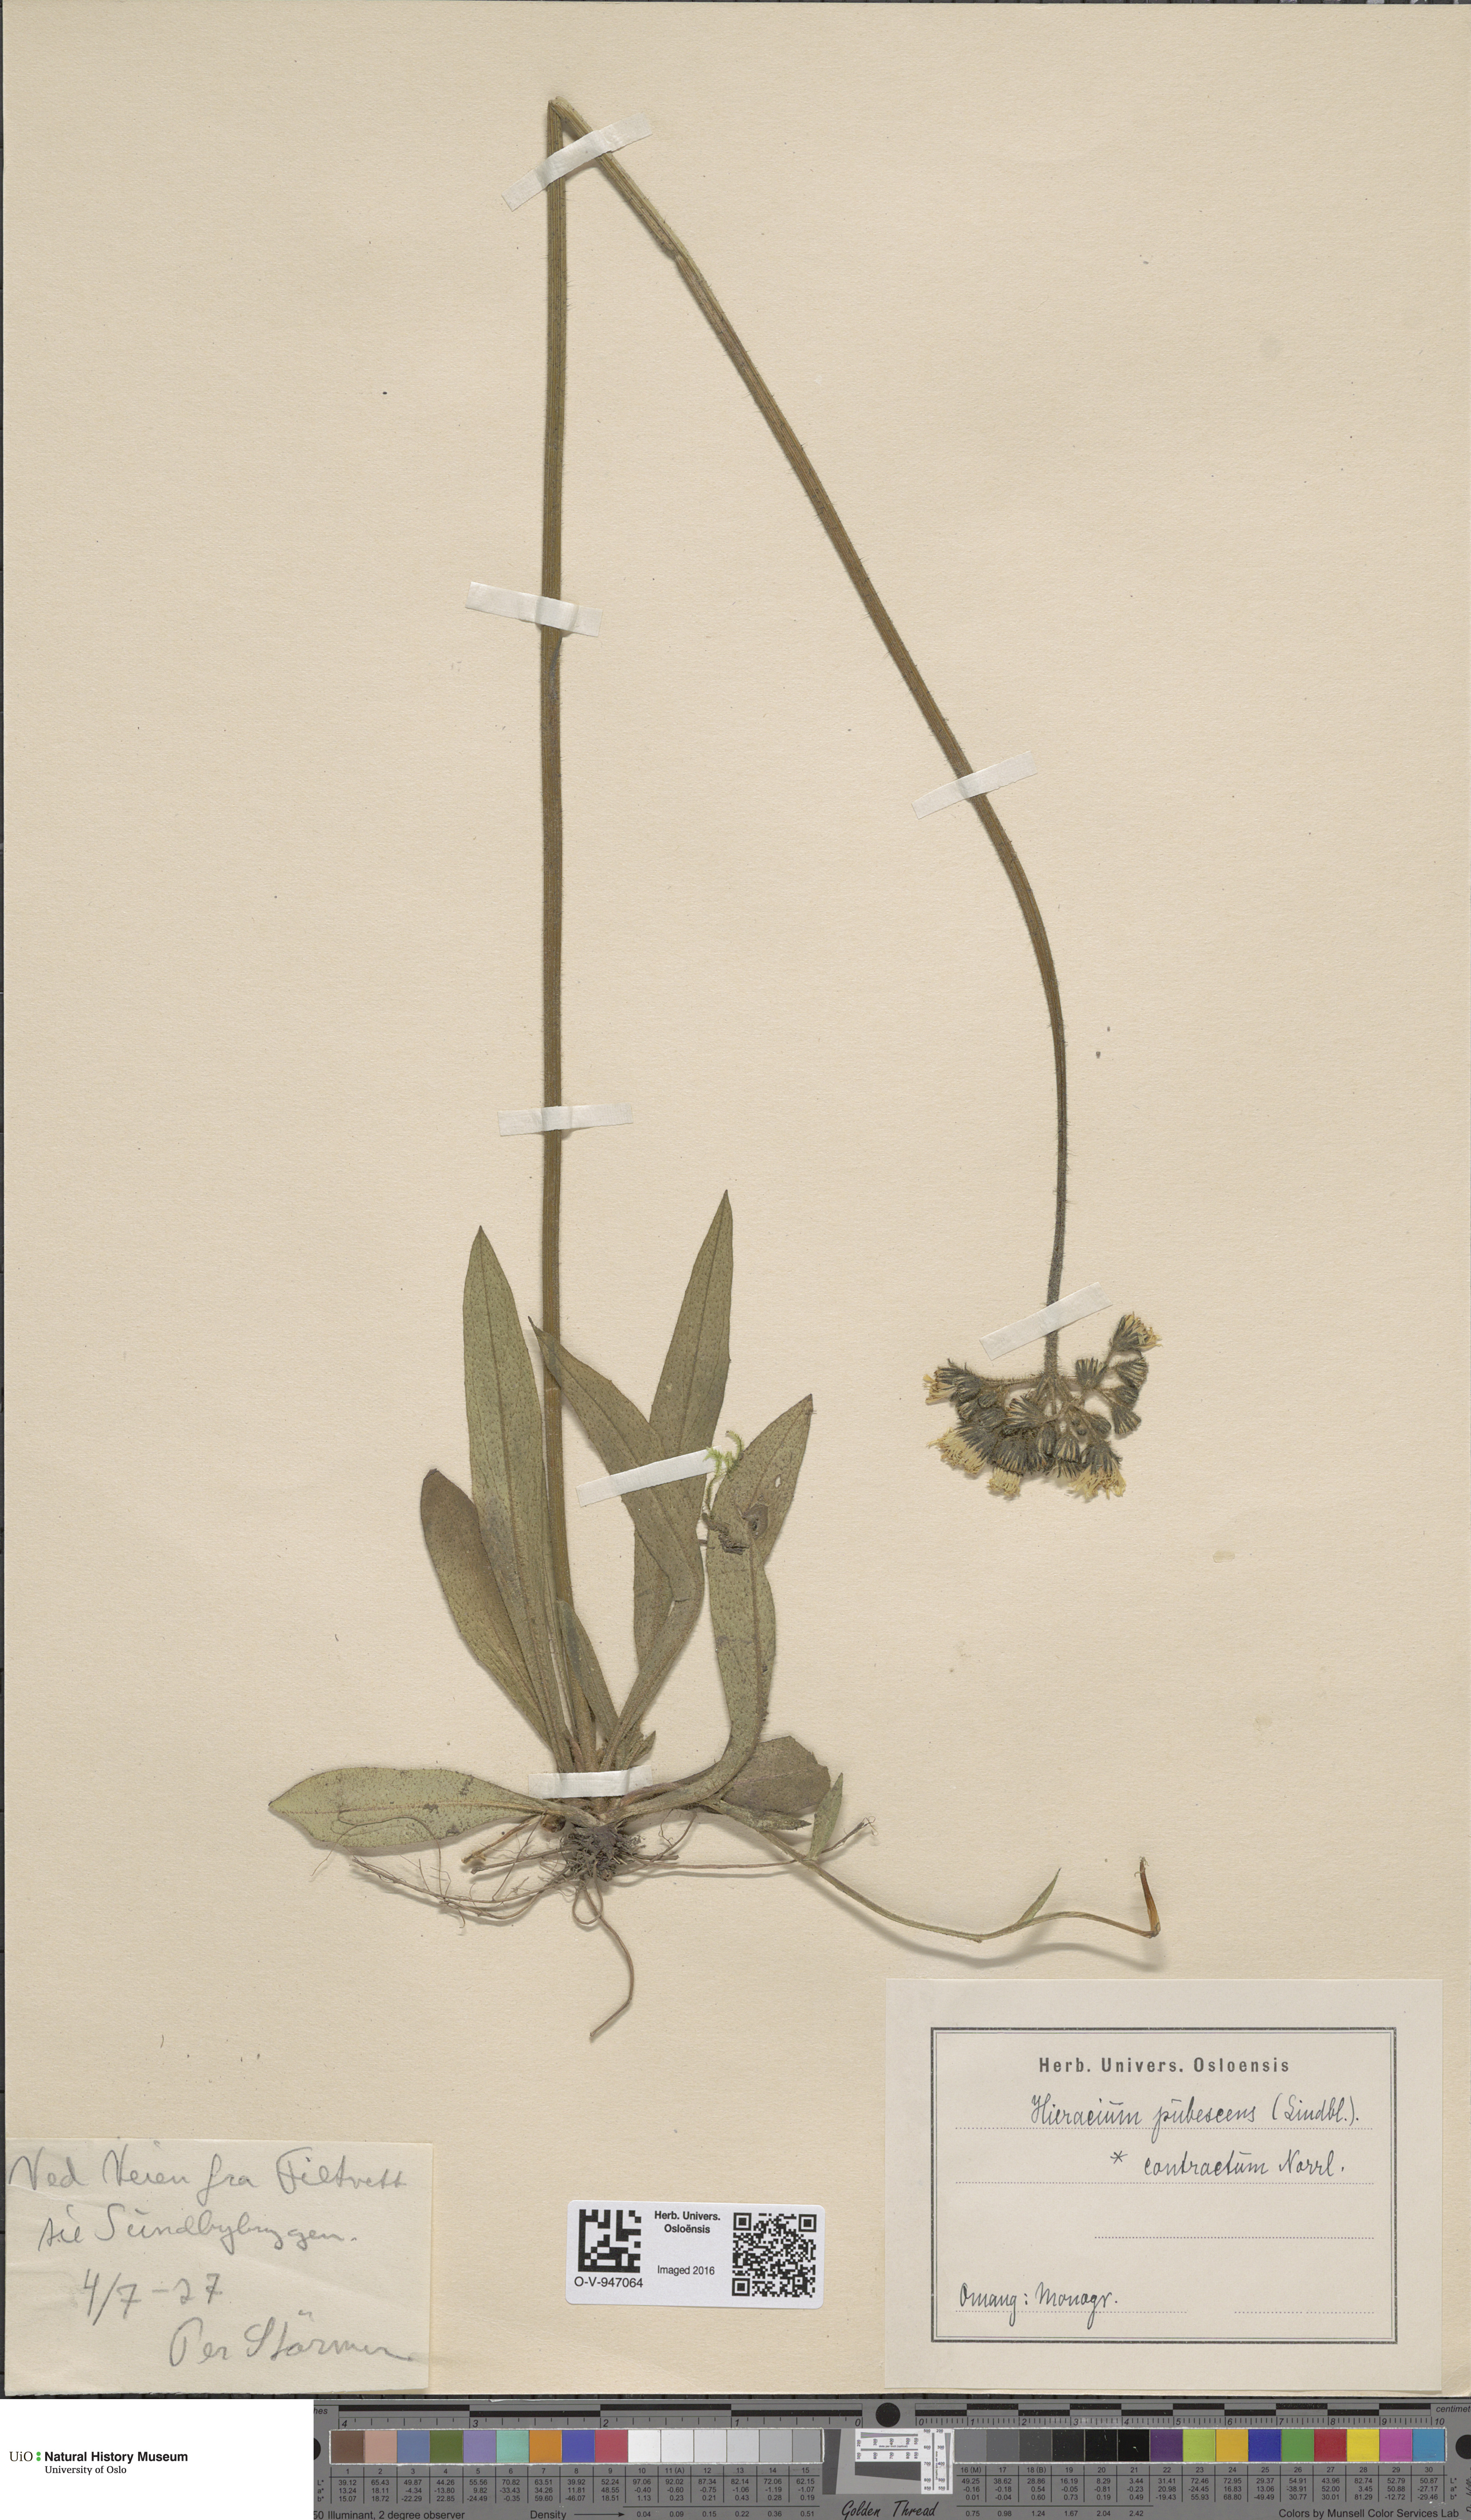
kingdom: Plantae
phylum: Tracheophyta
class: Magnoliopsida
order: Asterales
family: Asteraceae
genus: Pilosella
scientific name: Pilosella cymosa
